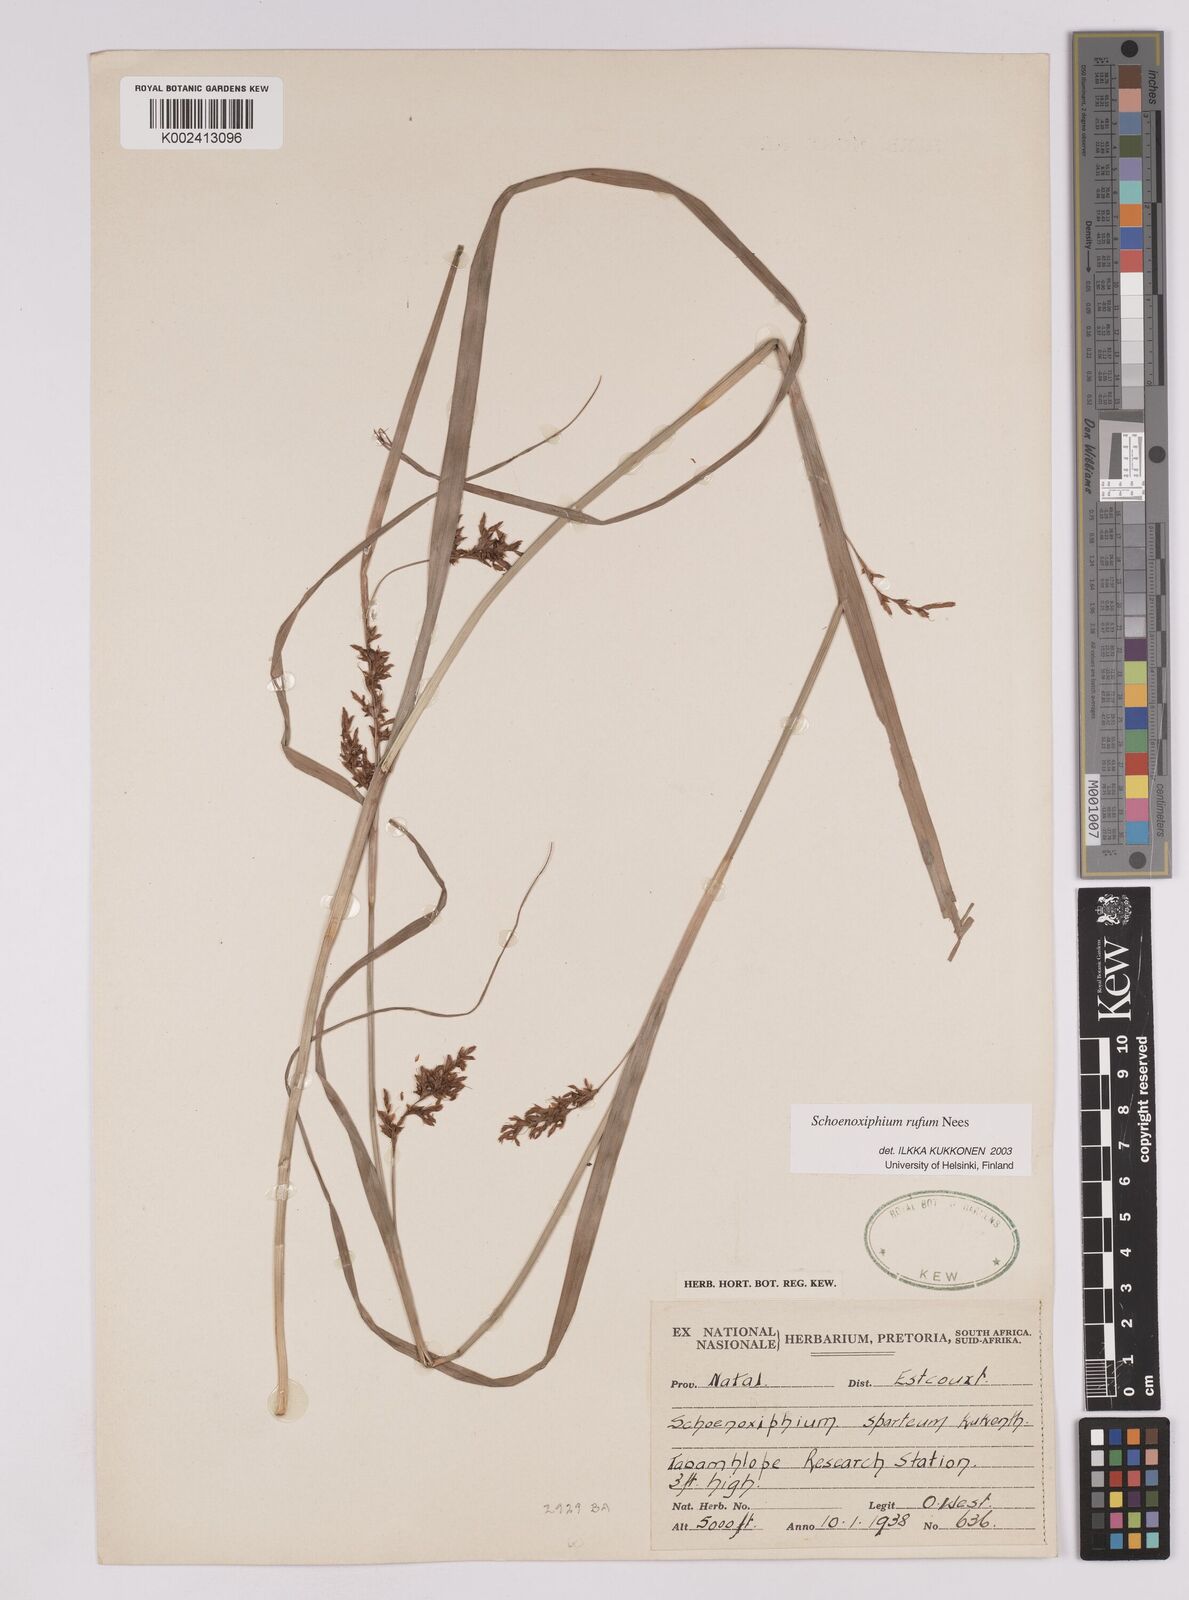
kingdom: Plantae
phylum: Tracheophyta
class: Liliopsida
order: Poales
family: Cyperaceae
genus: Carex
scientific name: Carex ludwigii
